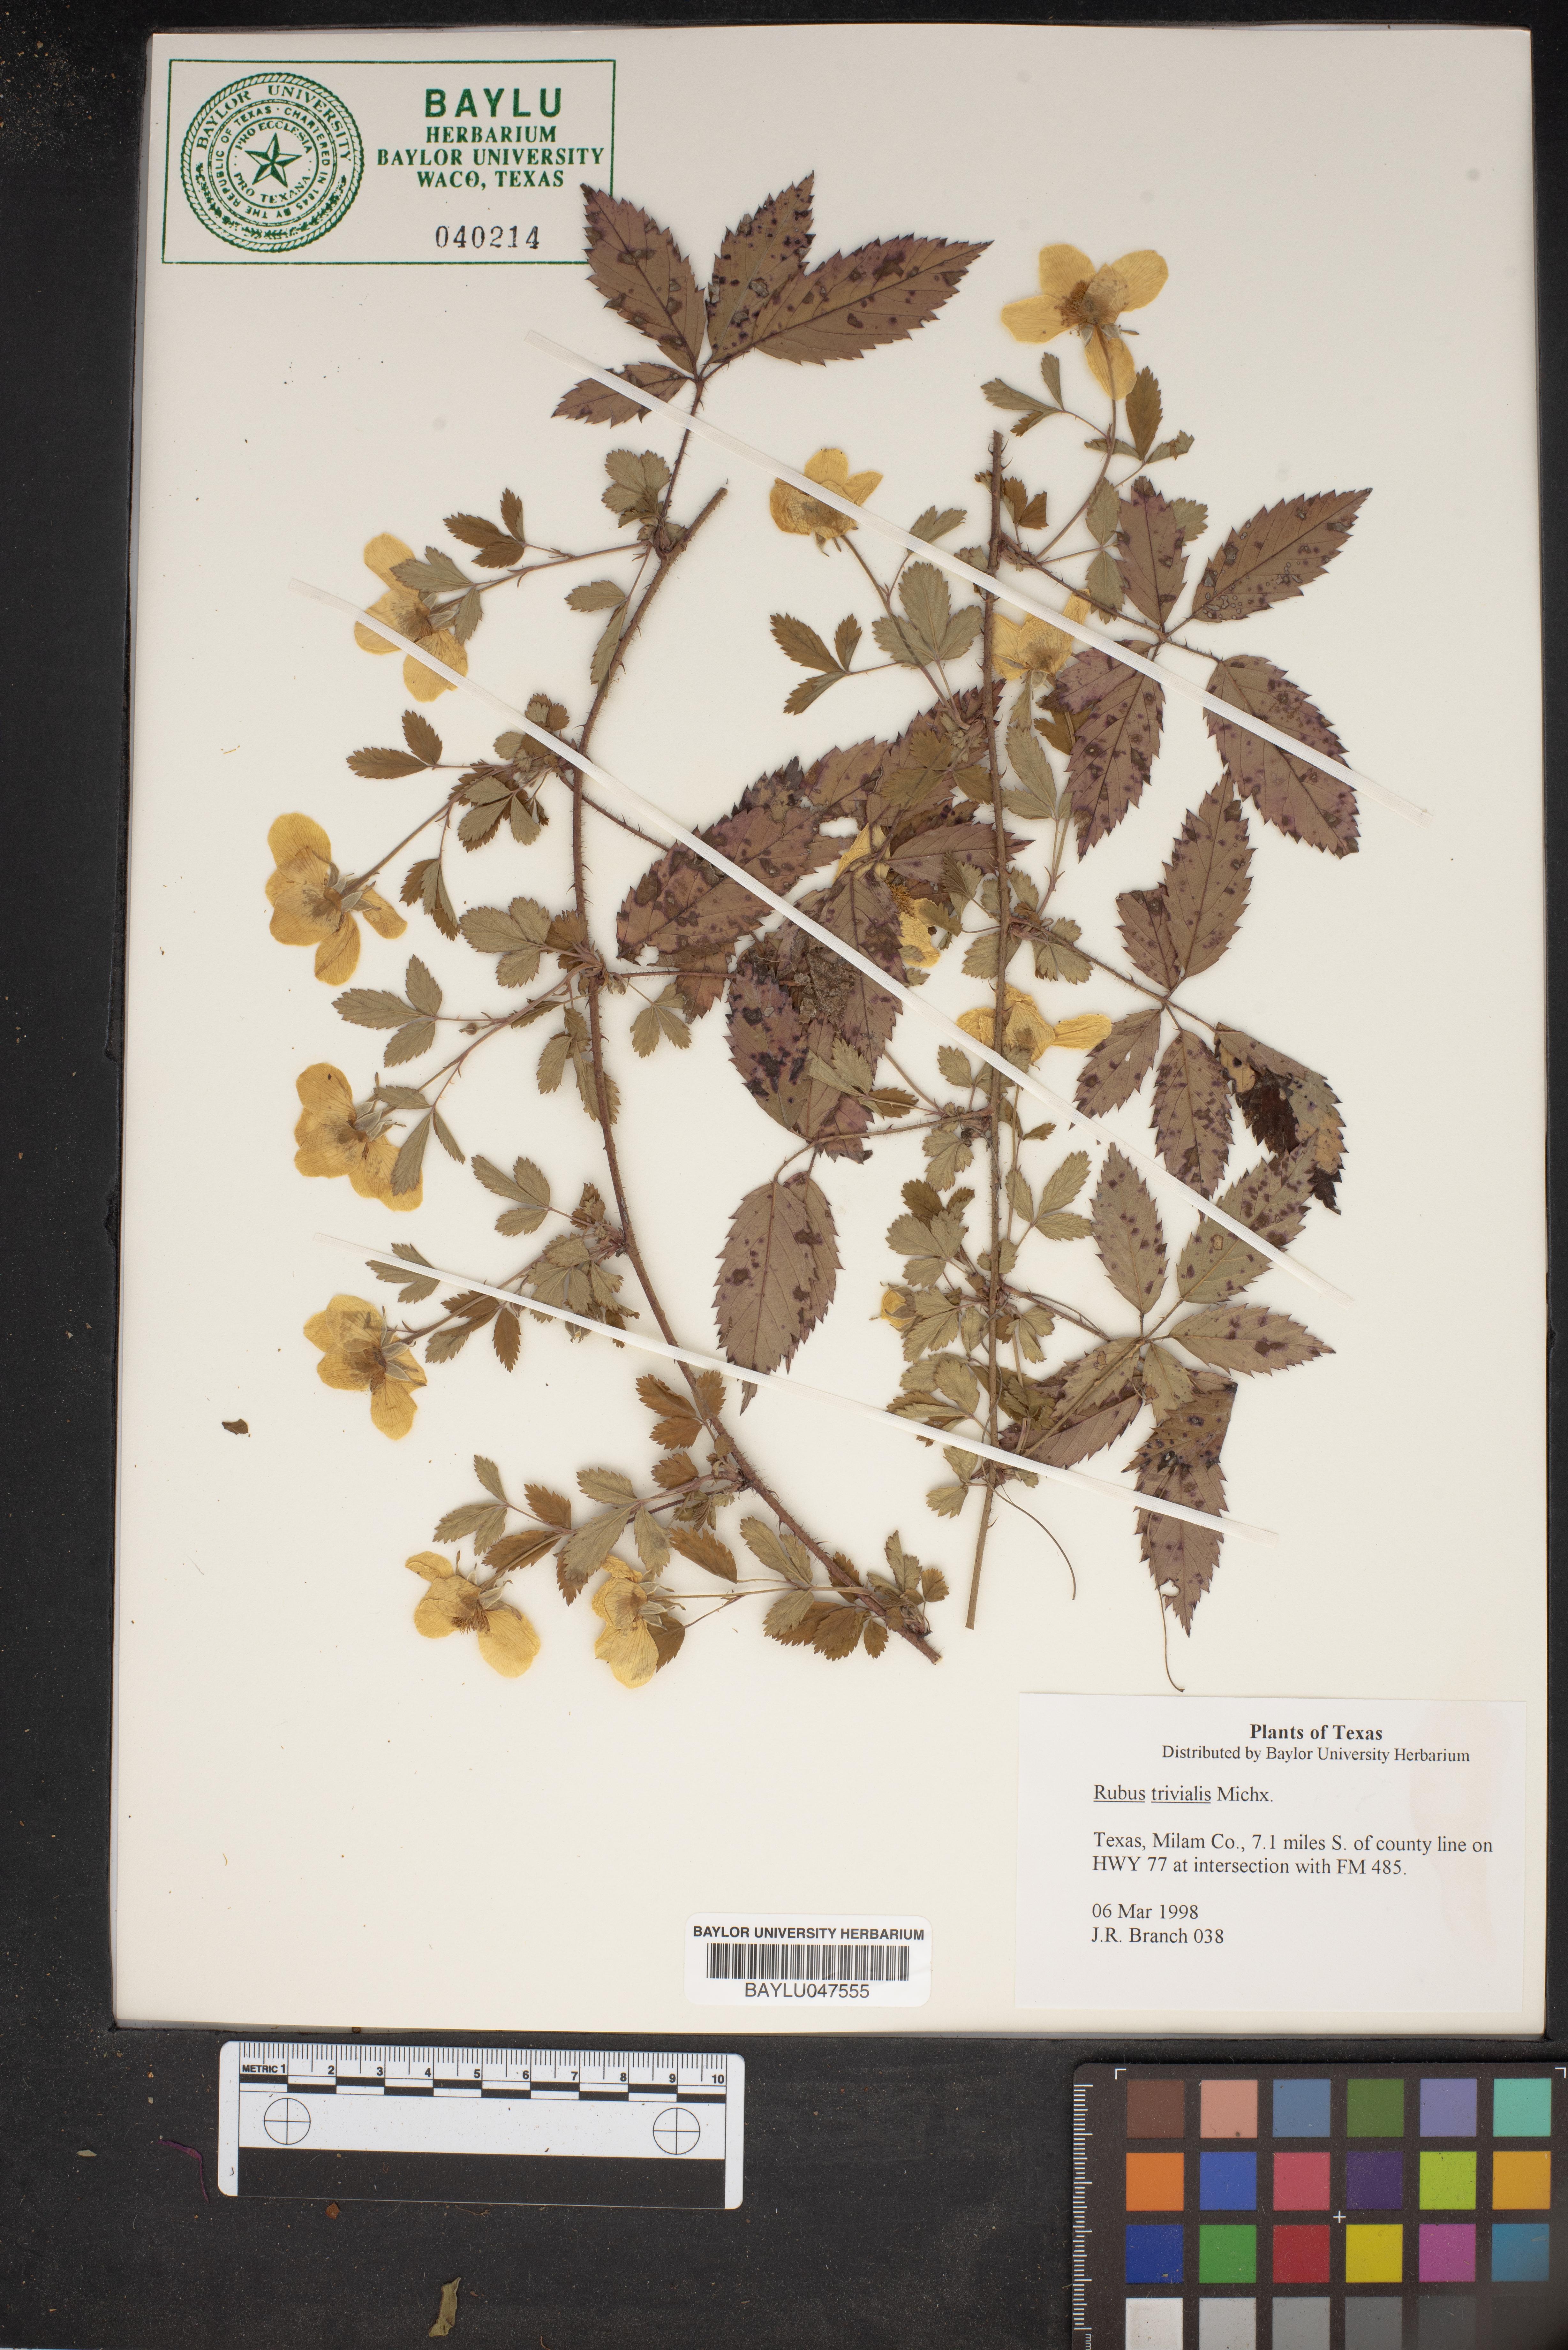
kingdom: Plantae
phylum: Tracheophyta
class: Magnoliopsida
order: Rosales
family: Rosaceae
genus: Rubus
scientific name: Rubus trivialis
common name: Southern dewberry
